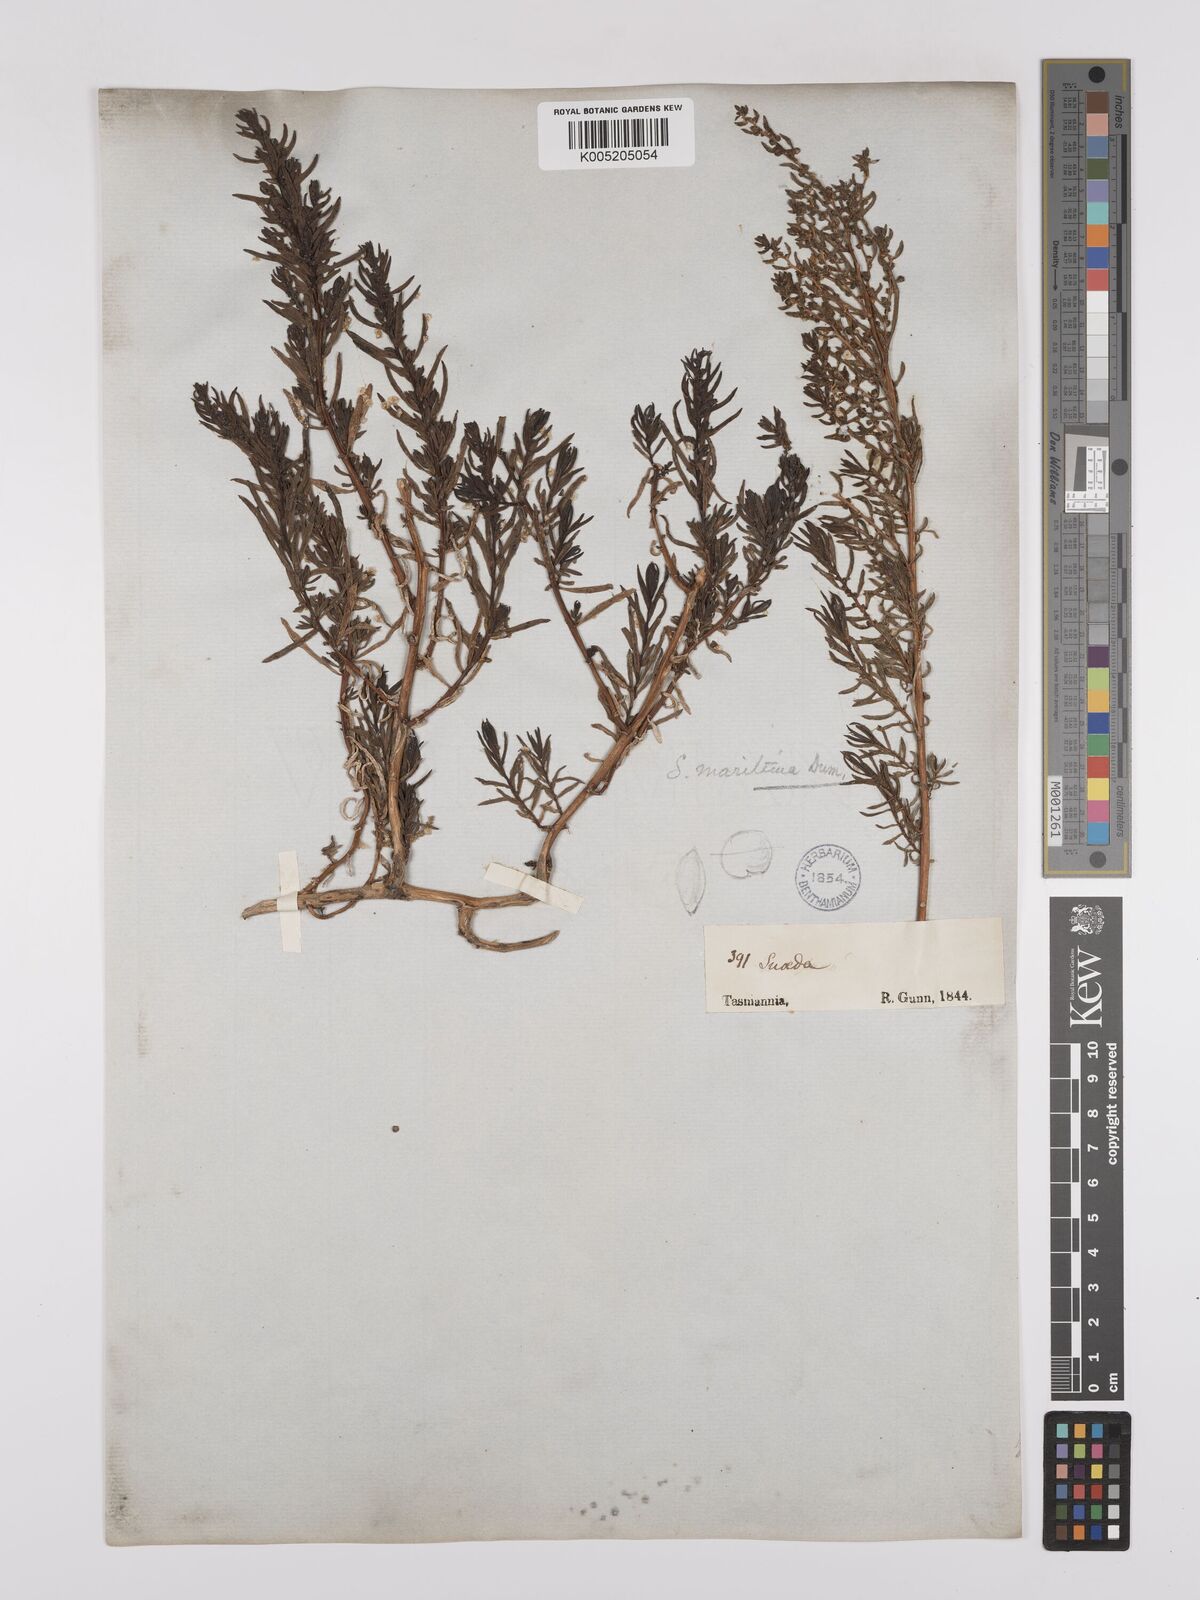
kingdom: Plantae
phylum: Tracheophyta
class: Magnoliopsida
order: Caryophyllales
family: Amaranthaceae
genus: Suaeda
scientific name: Suaeda australis
